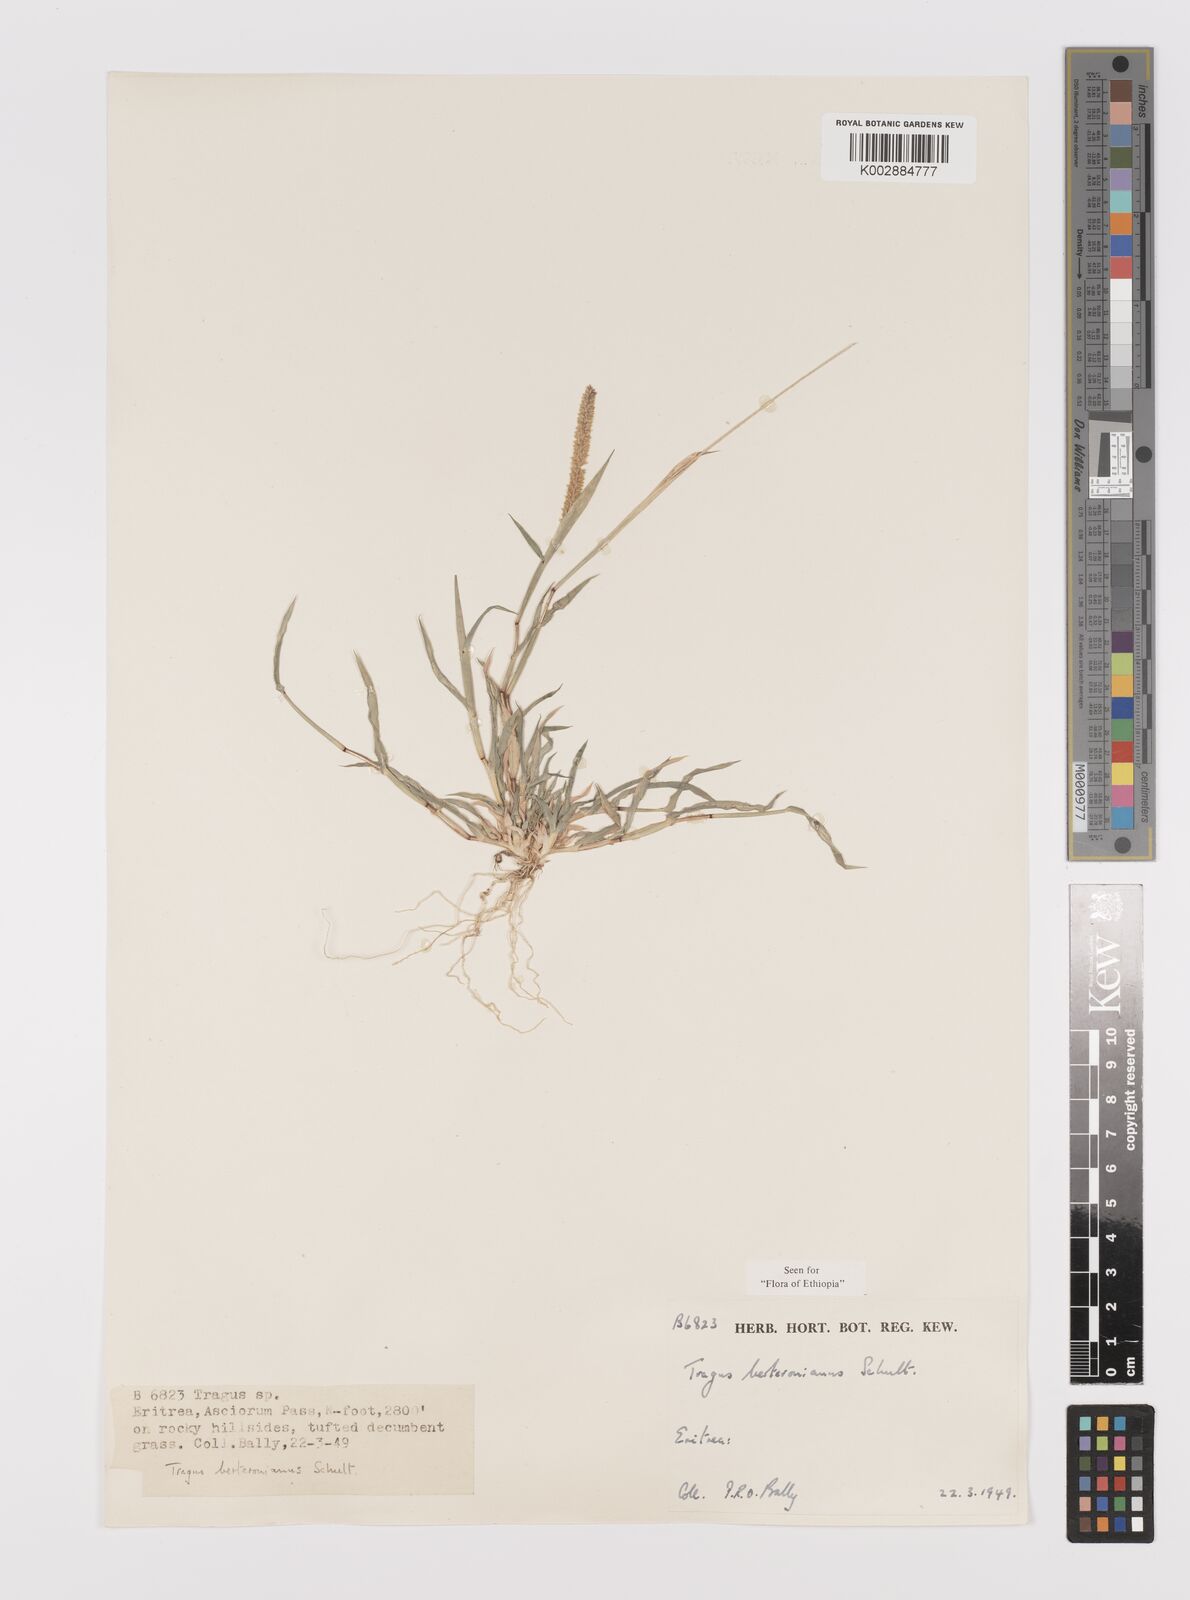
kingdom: Plantae
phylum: Tracheophyta
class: Liliopsida
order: Poales
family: Poaceae
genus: Tragus
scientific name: Tragus berteronianus
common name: African bur-grass
